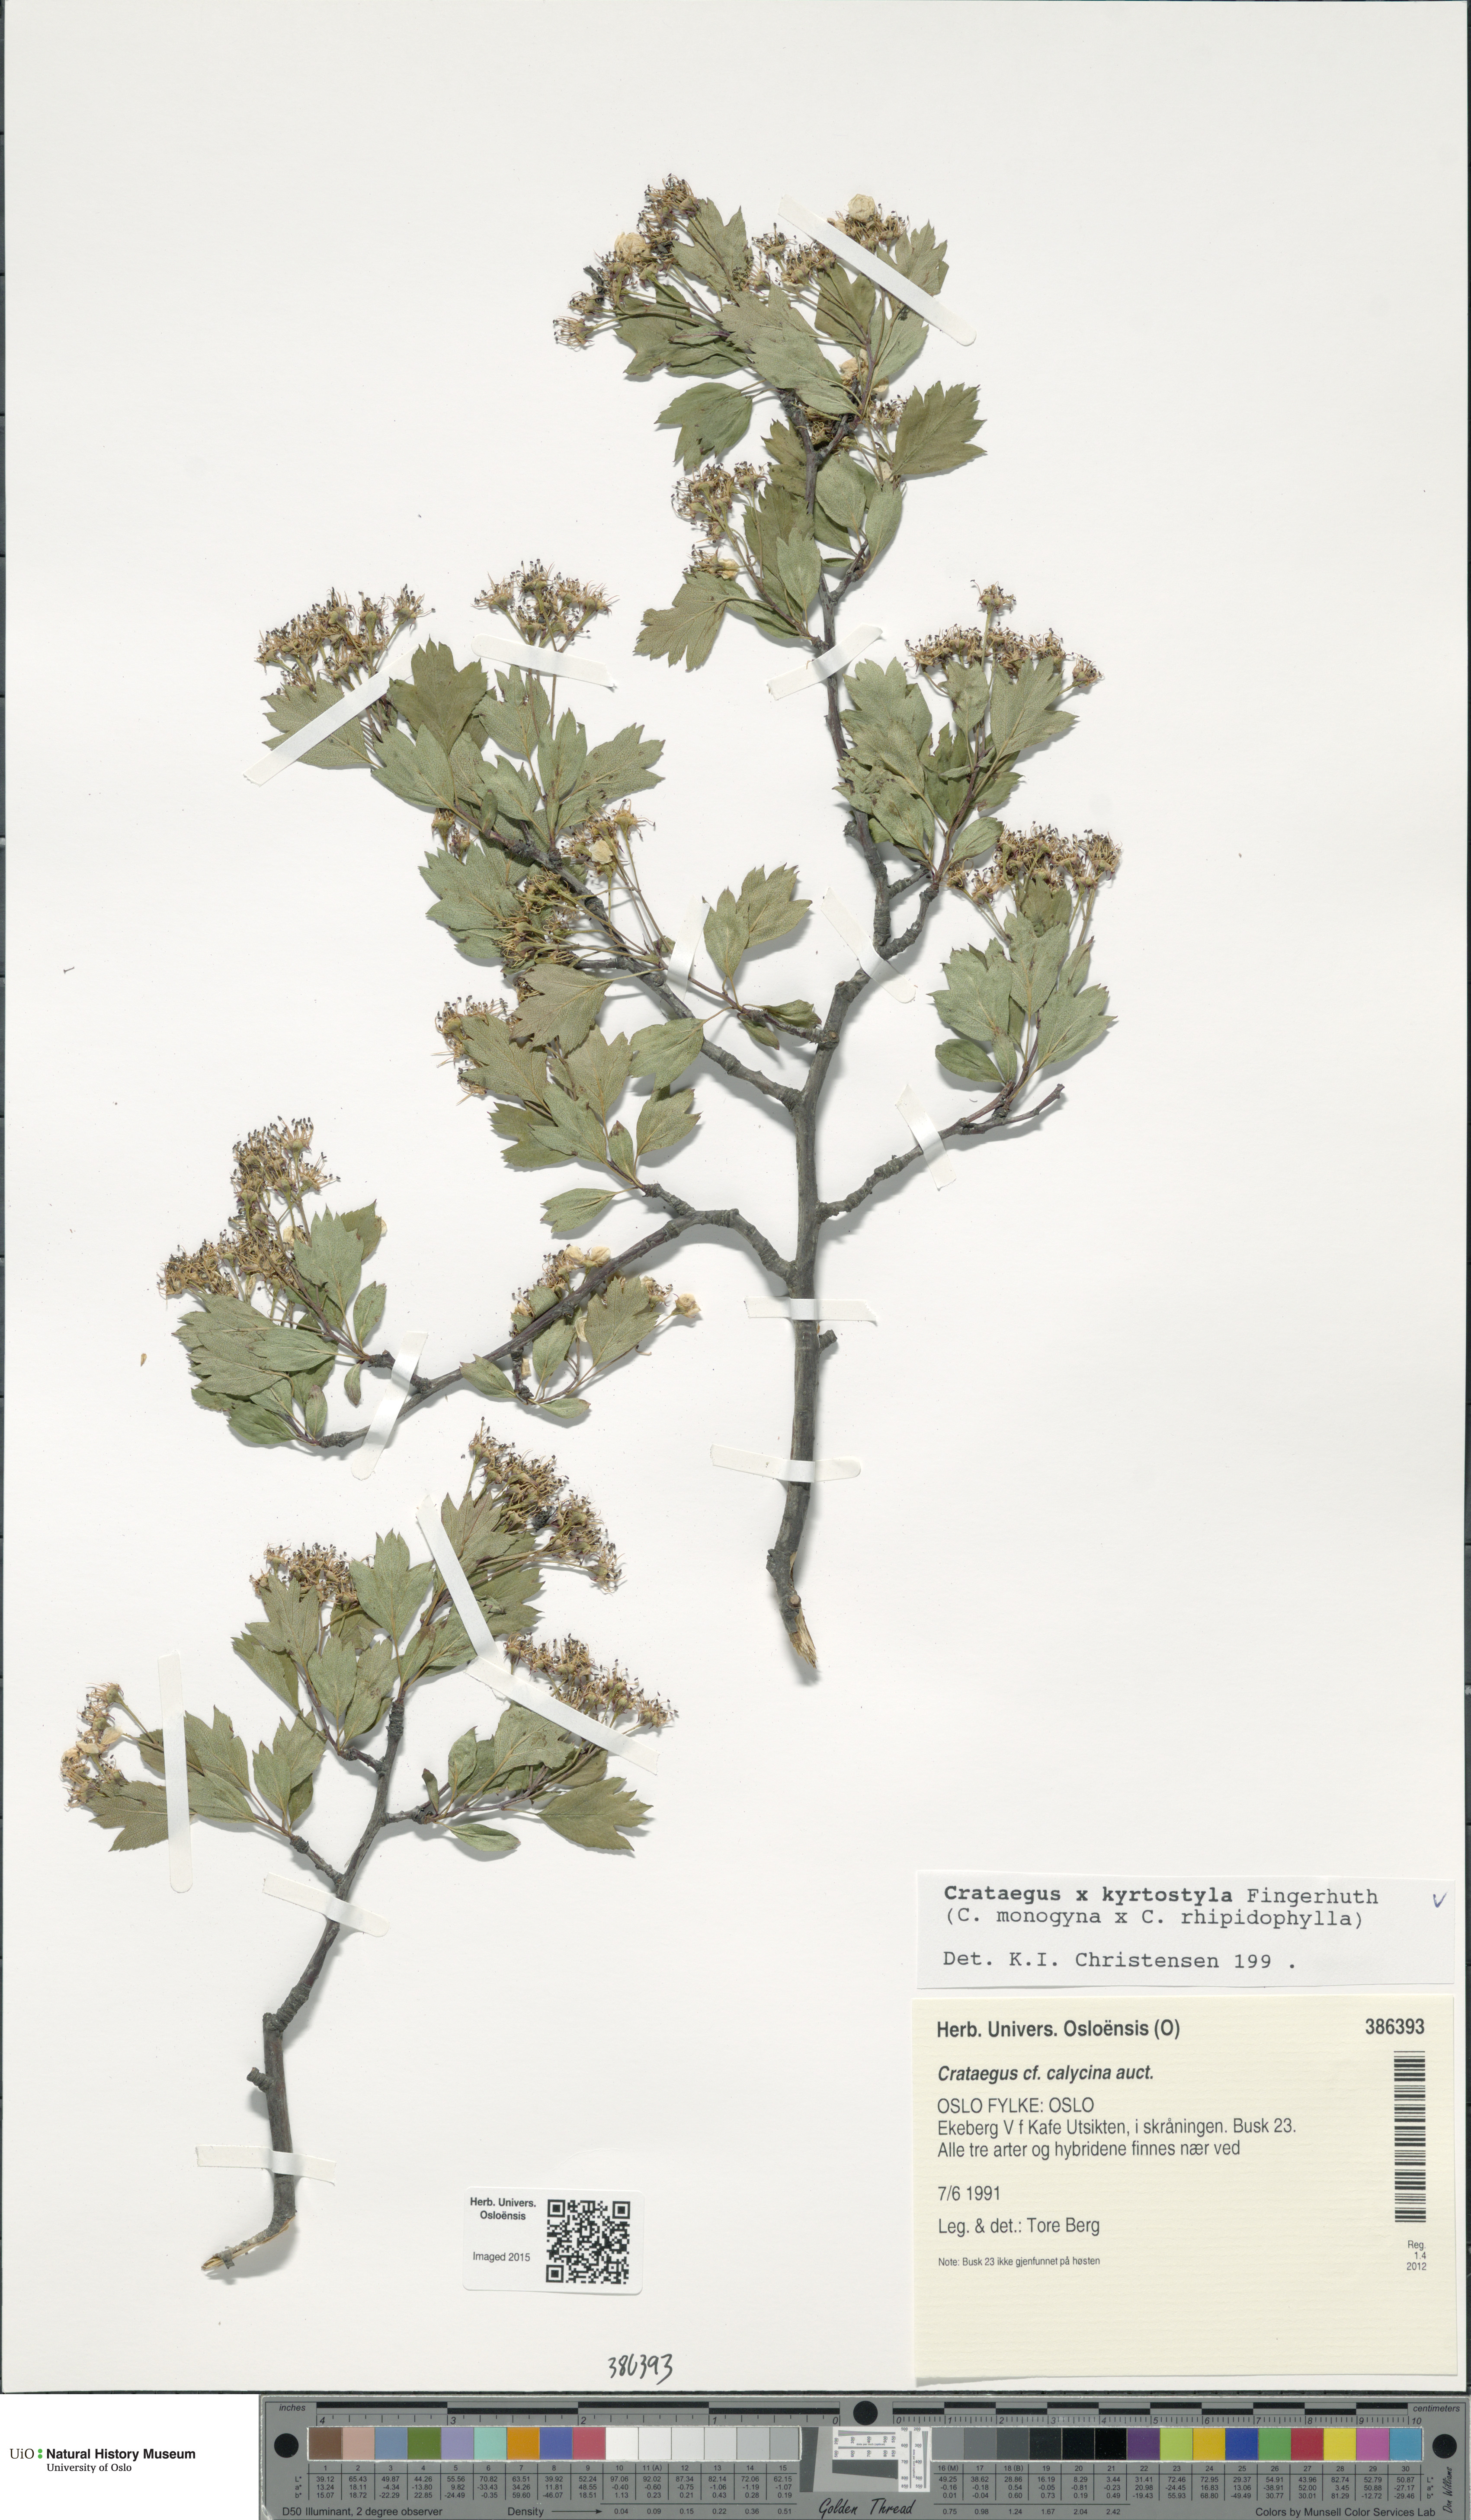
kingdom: Plantae
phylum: Tracheophyta
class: Magnoliopsida
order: Rosales
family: Rosaceae
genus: Crataegus
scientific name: Crataegus
